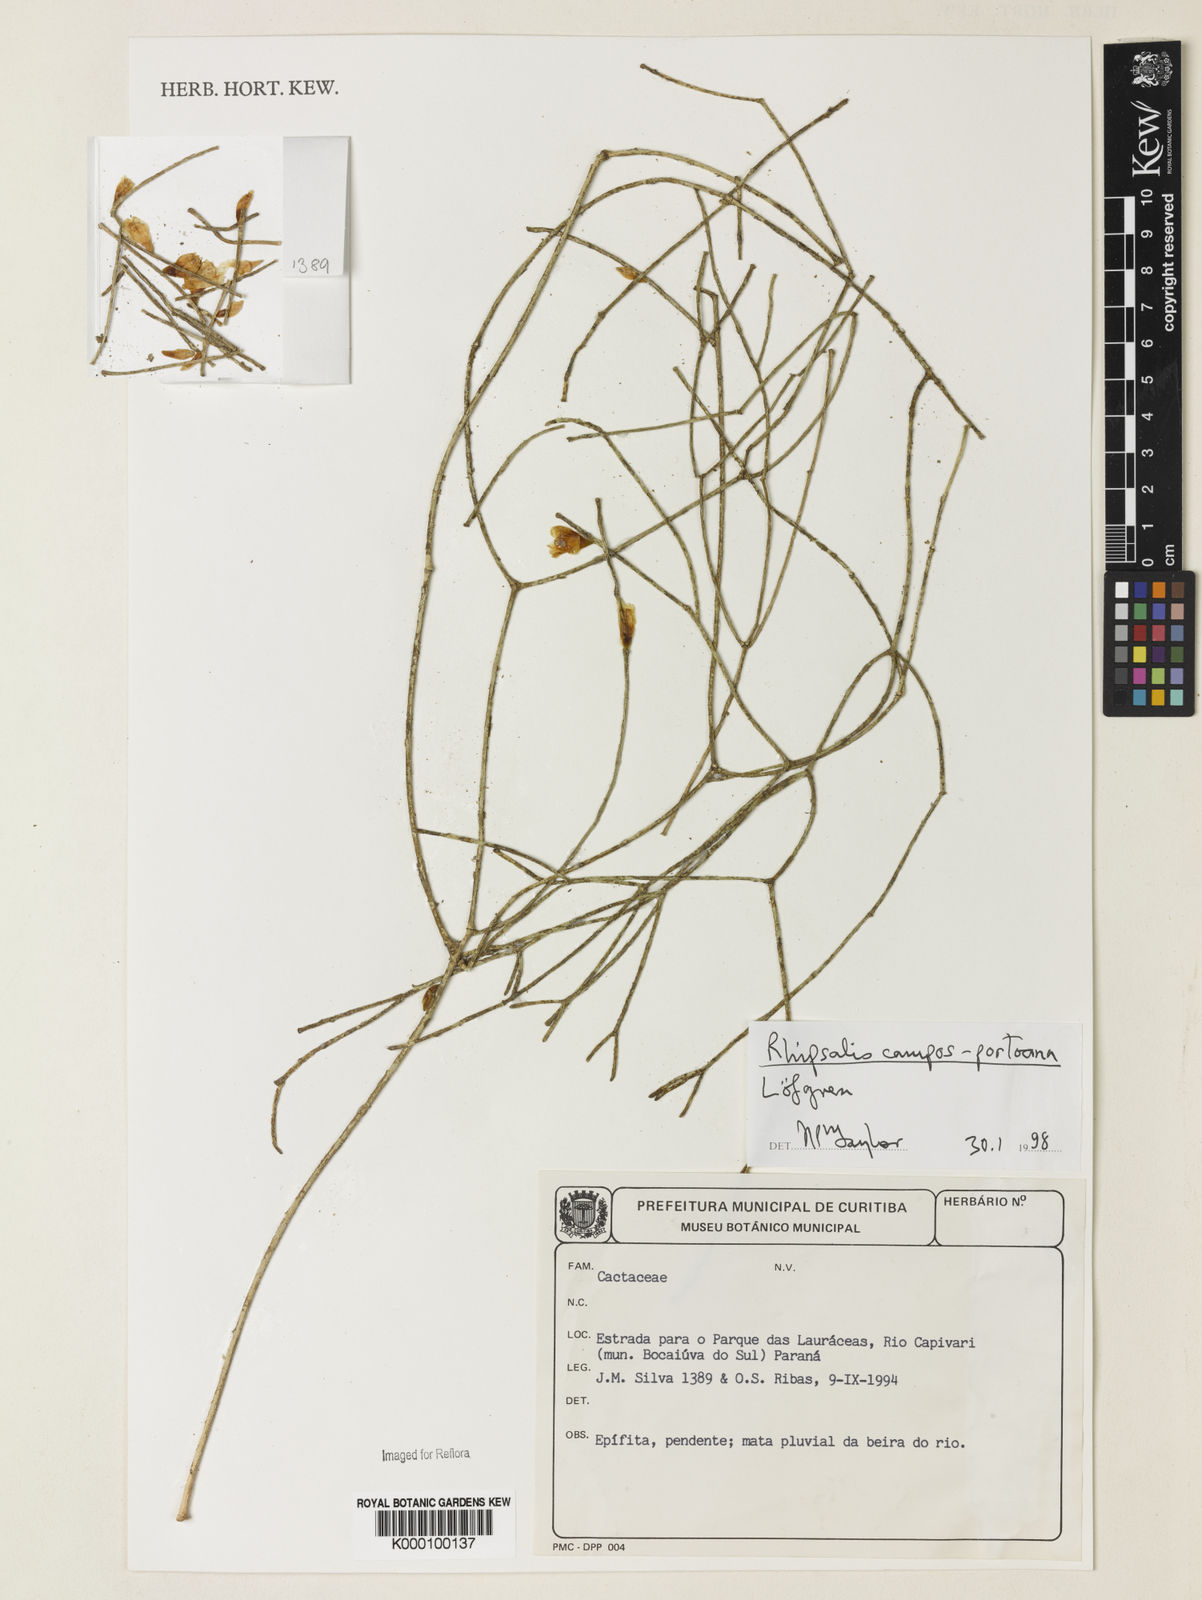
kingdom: Plantae
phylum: Tracheophyta
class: Magnoliopsida
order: Caryophyllales
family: Cactaceae
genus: Rhipsalis
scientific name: Rhipsalis campos-portoana
